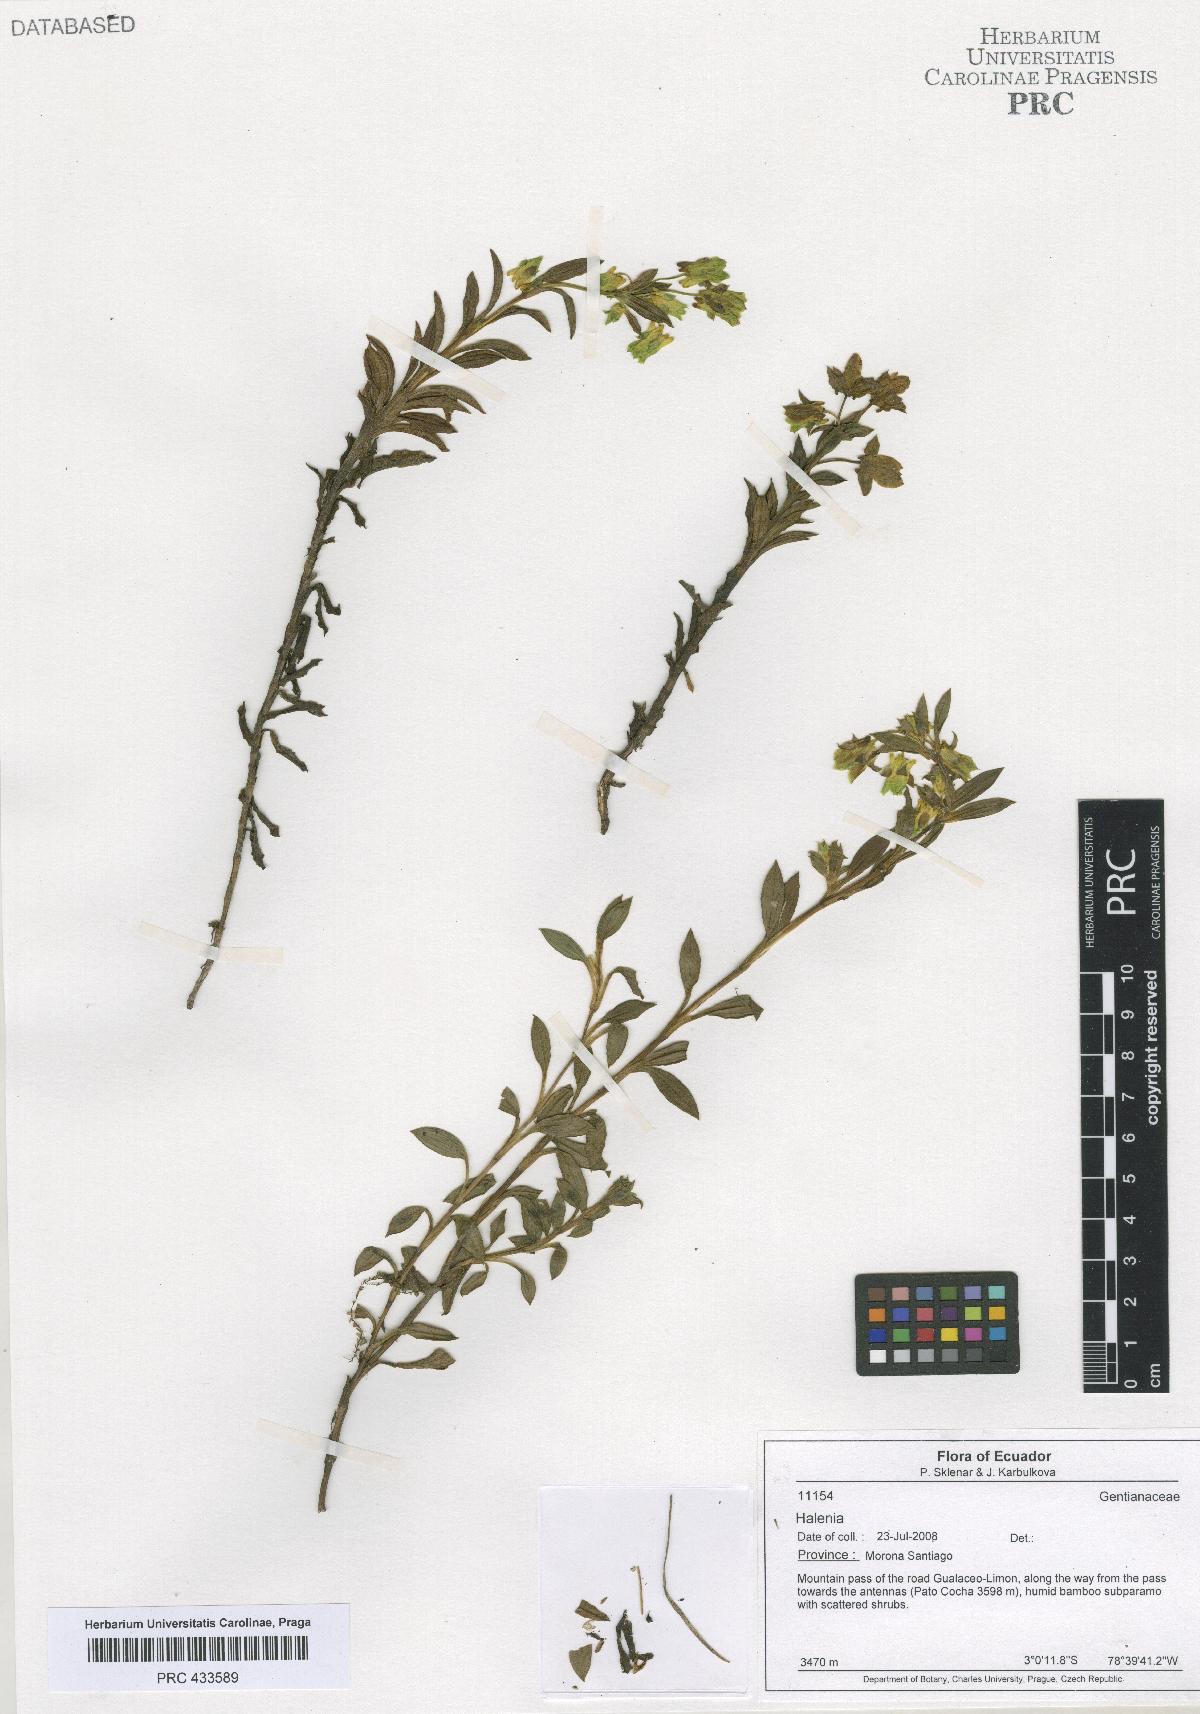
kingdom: Plantae
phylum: Tracheophyta
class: Magnoliopsida
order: Gentianales
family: Gentianaceae
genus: Halenia
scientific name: Halenia
